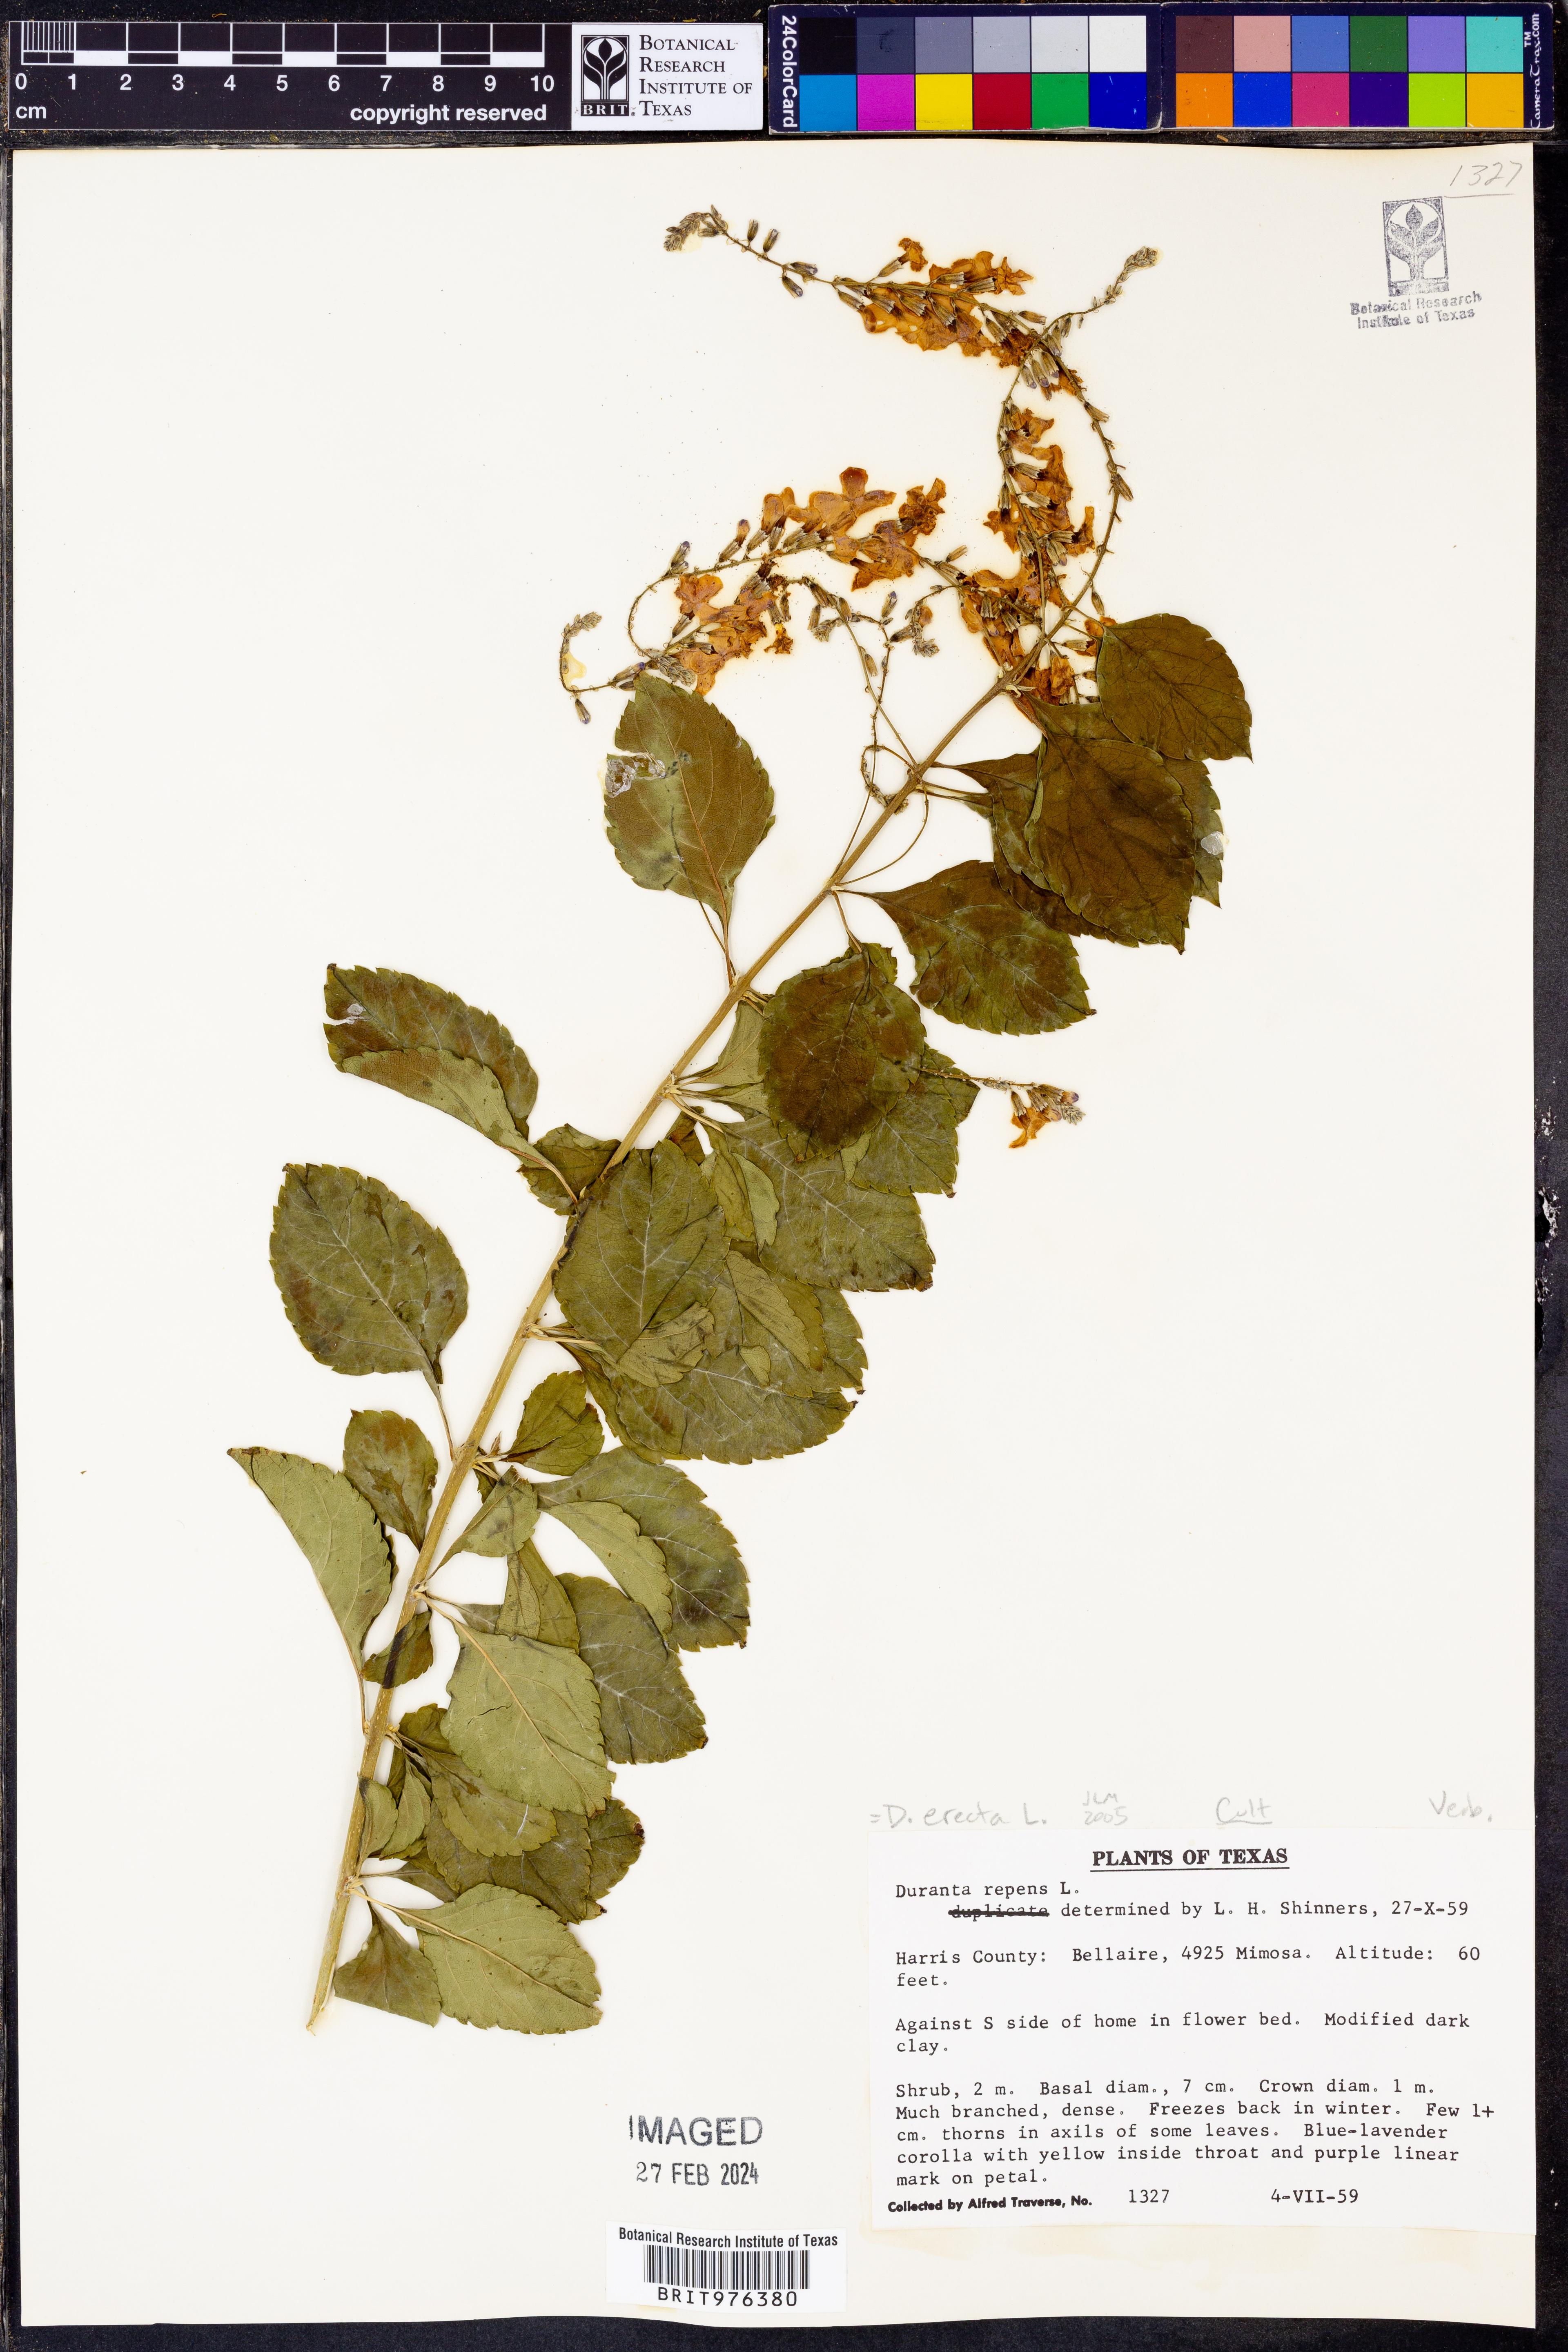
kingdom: Plantae
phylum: Tracheophyta
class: Magnoliopsida
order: Lamiales
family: Verbenaceae
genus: Duranta
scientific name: Duranta
